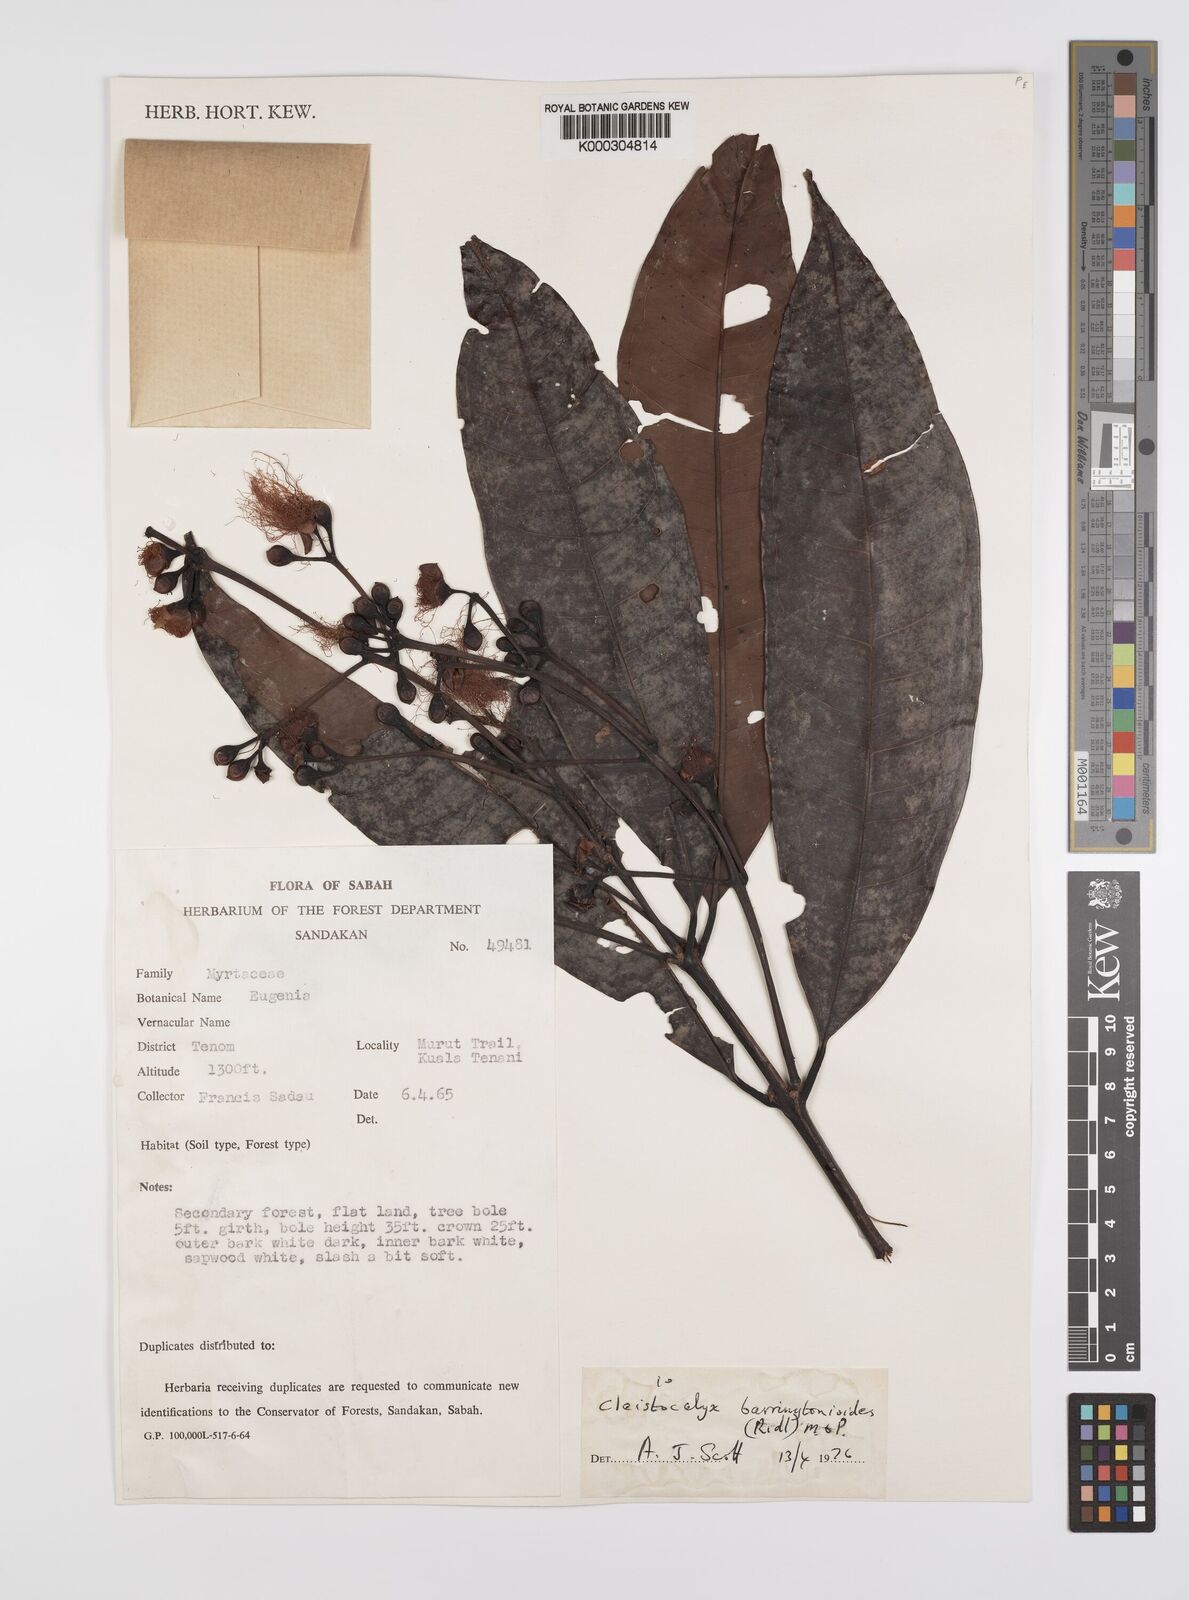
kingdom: Plantae
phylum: Tracheophyta
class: Magnoliopsida
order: Myrtales
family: Myrtaceae
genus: Syzygium
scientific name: Syzygium barringtonioides
